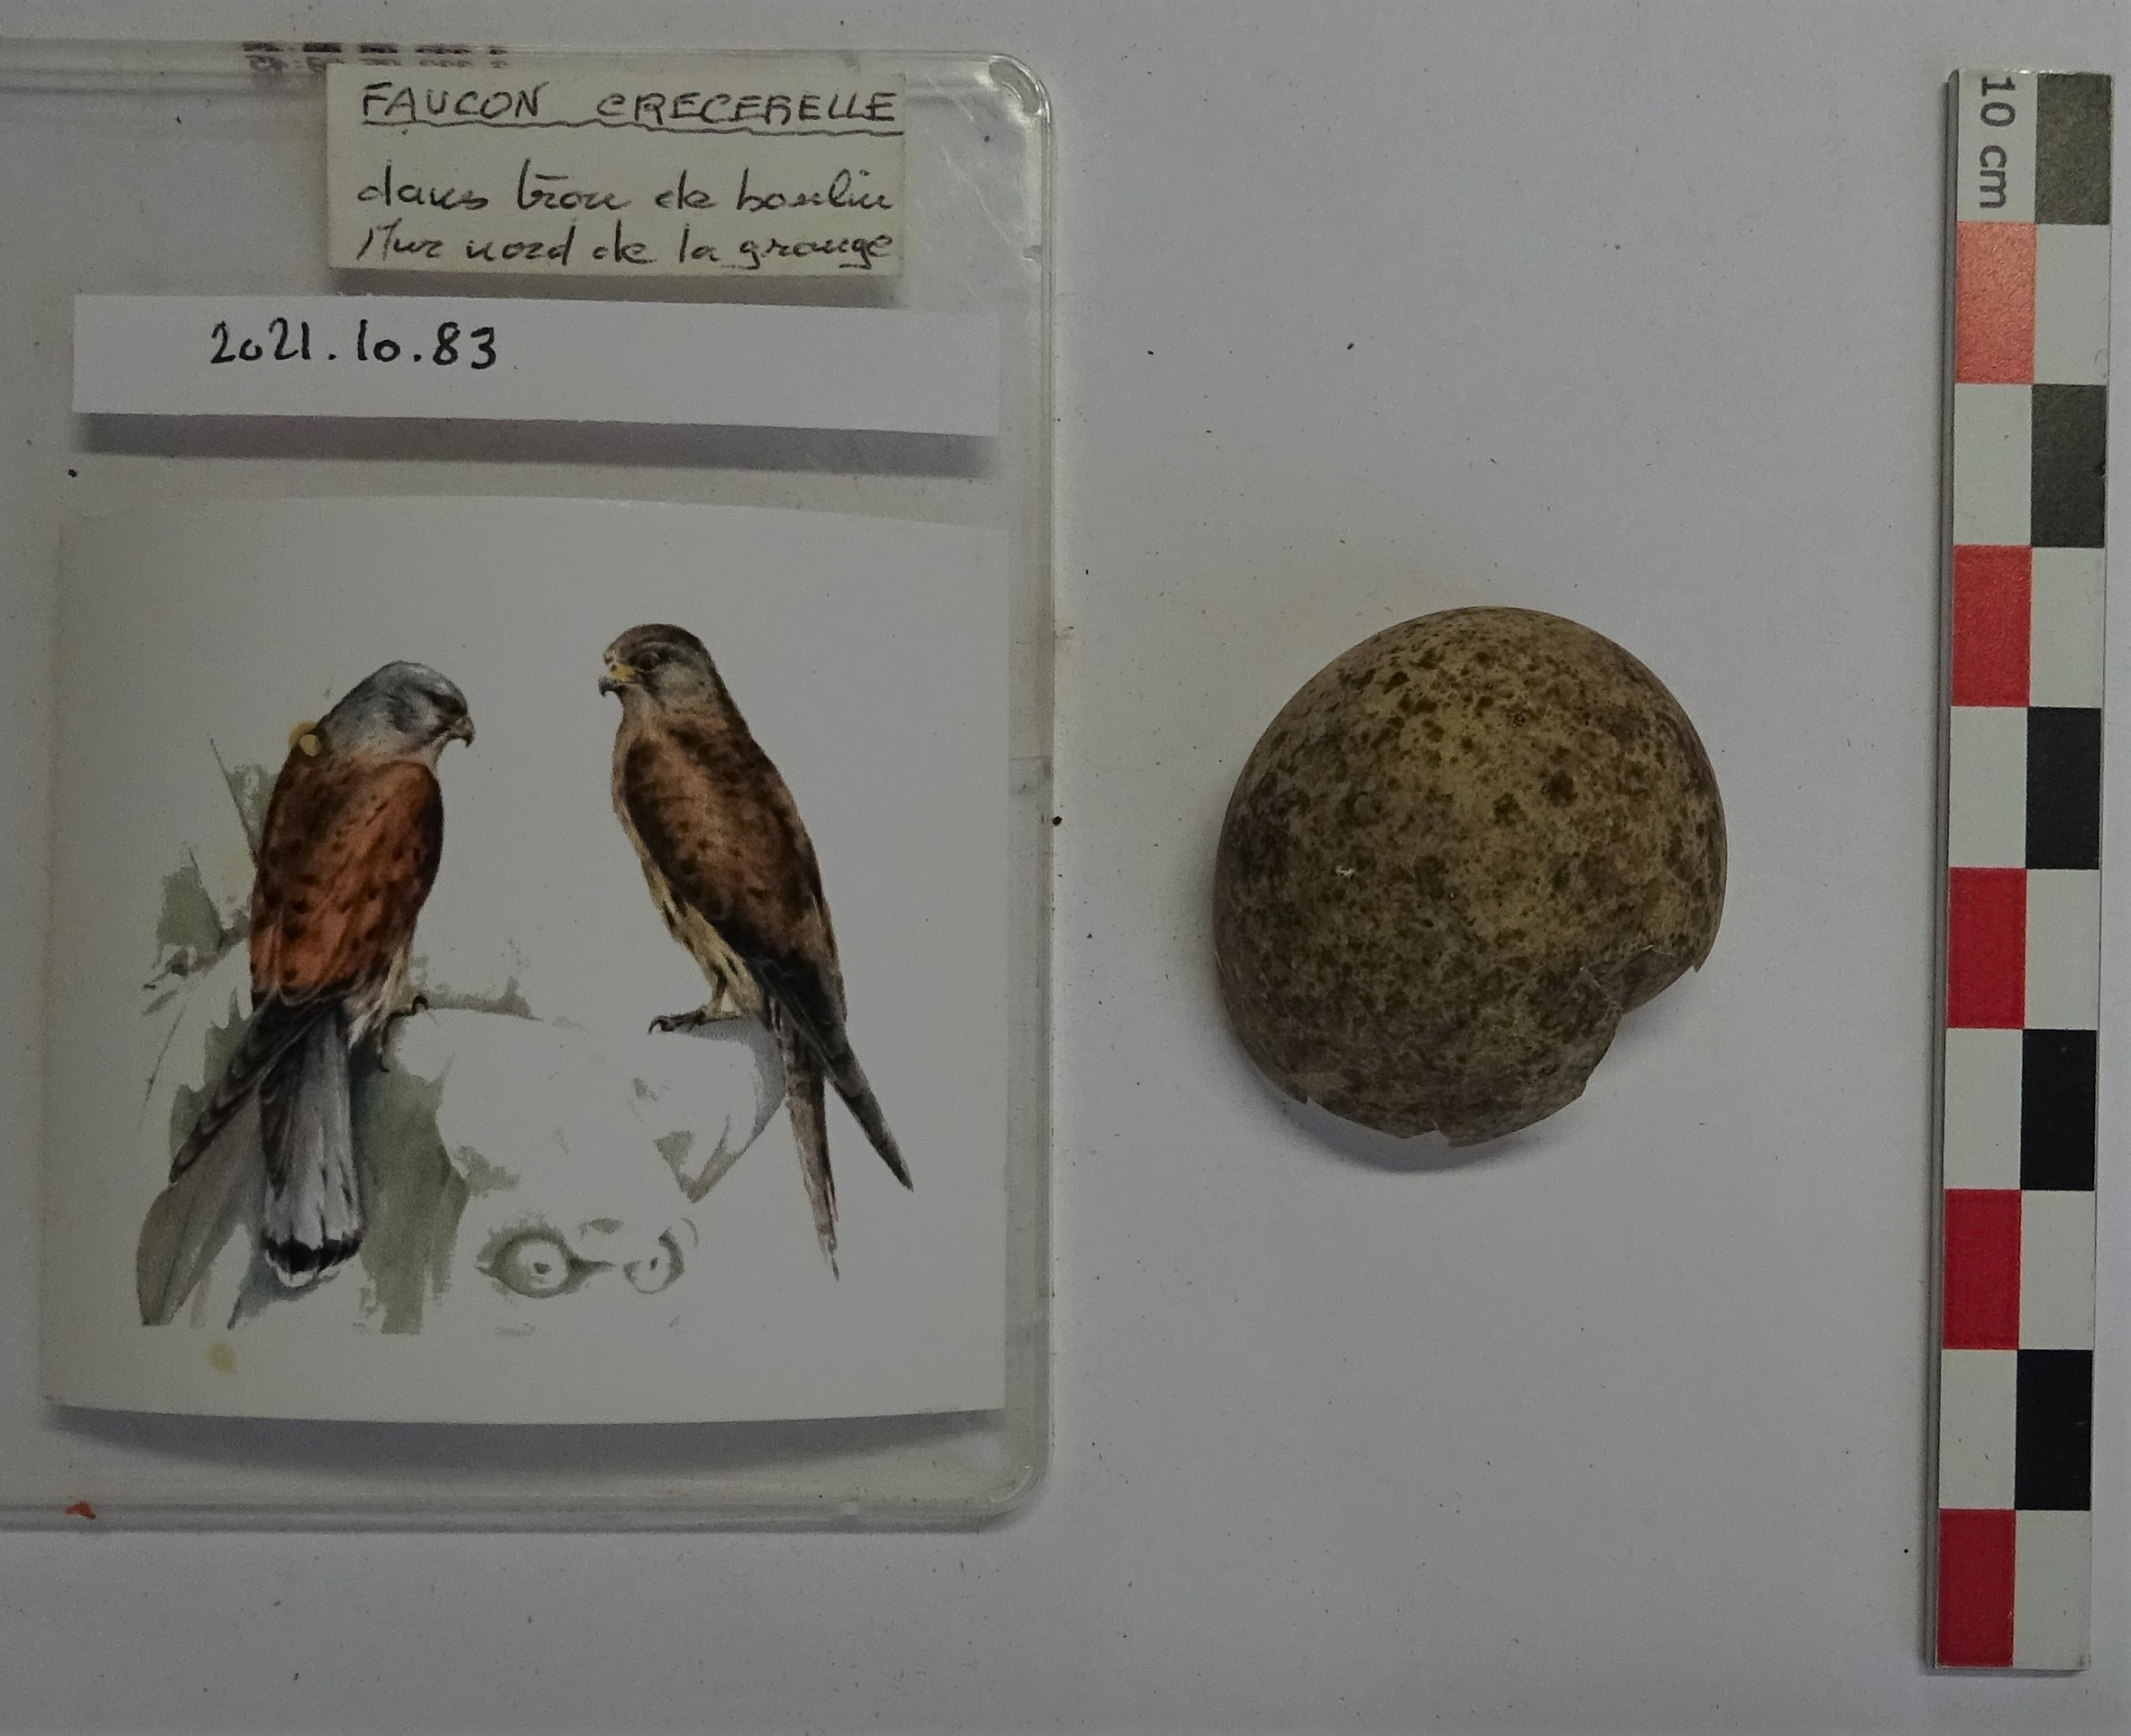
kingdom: Animalia
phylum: Chordata
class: Aves
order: Falconiformes
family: Falconidae
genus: Falco
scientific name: Falco tinnunculus
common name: Common kestrel
